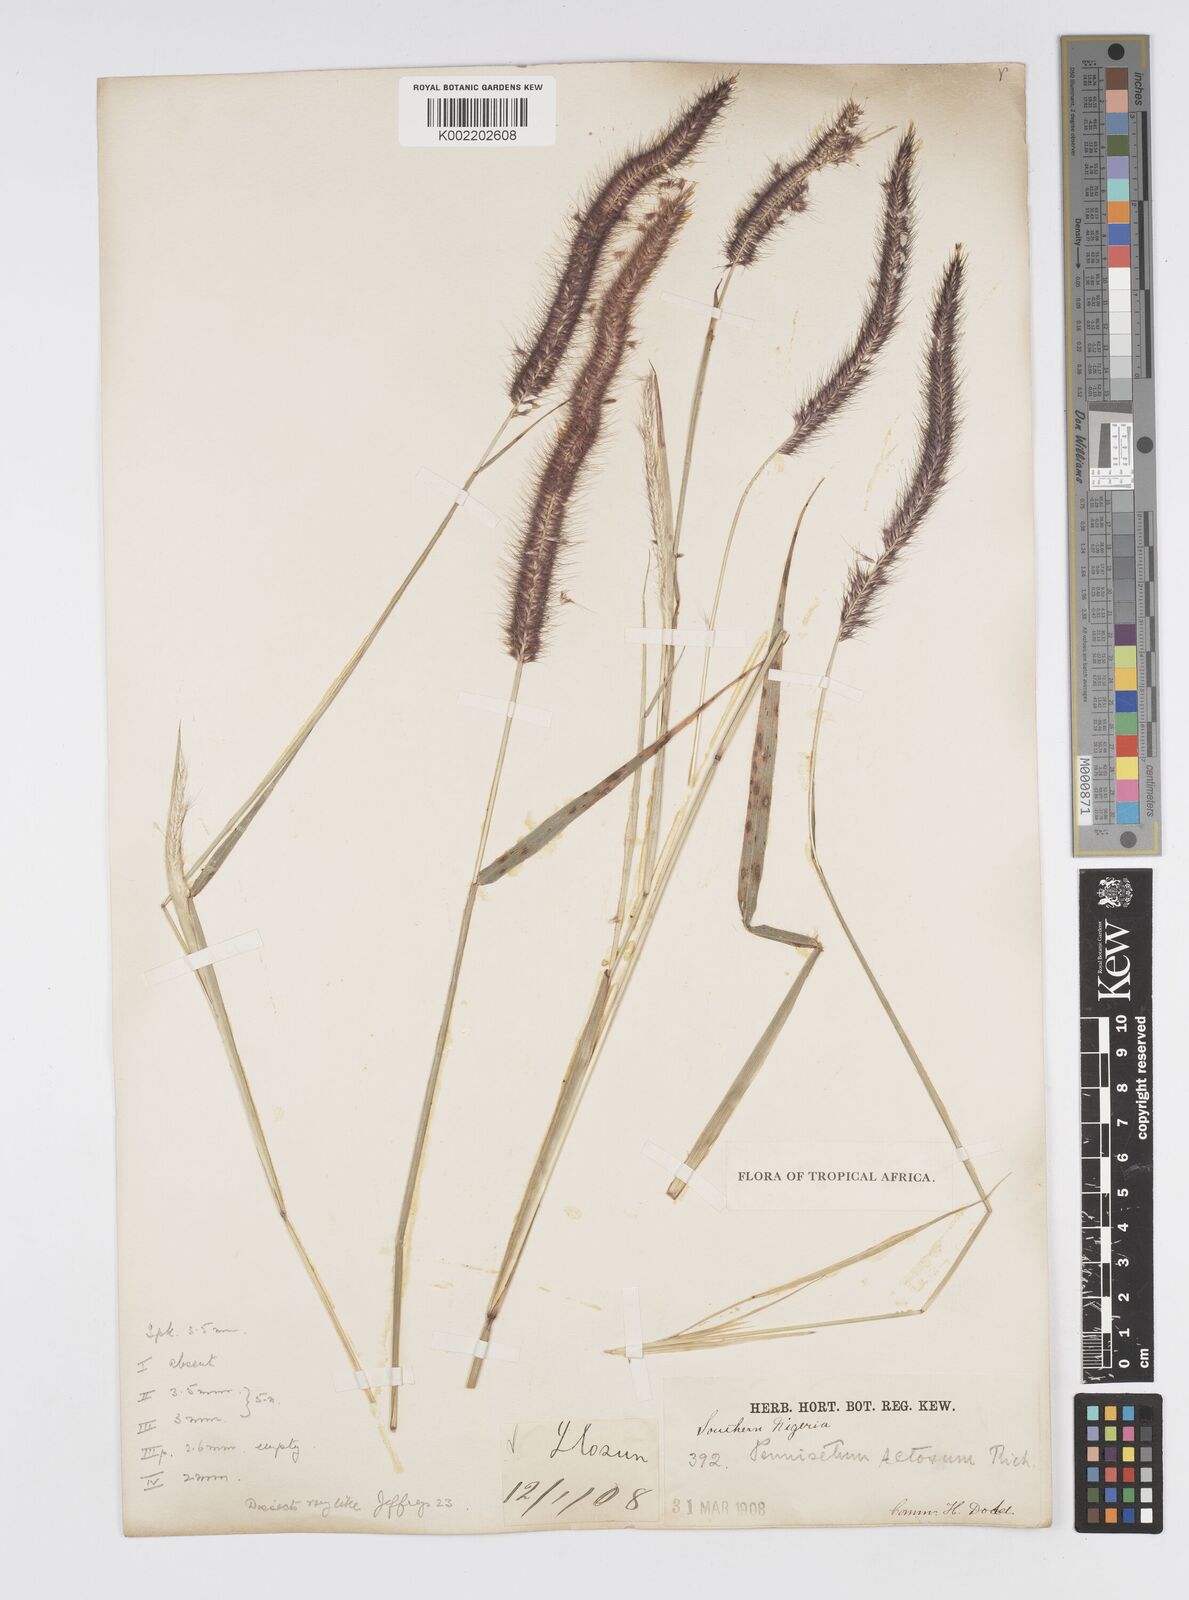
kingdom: Plantae
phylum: Tracheophyta
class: Liliopsida
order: Poales
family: Poaceae
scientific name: Poaceae
